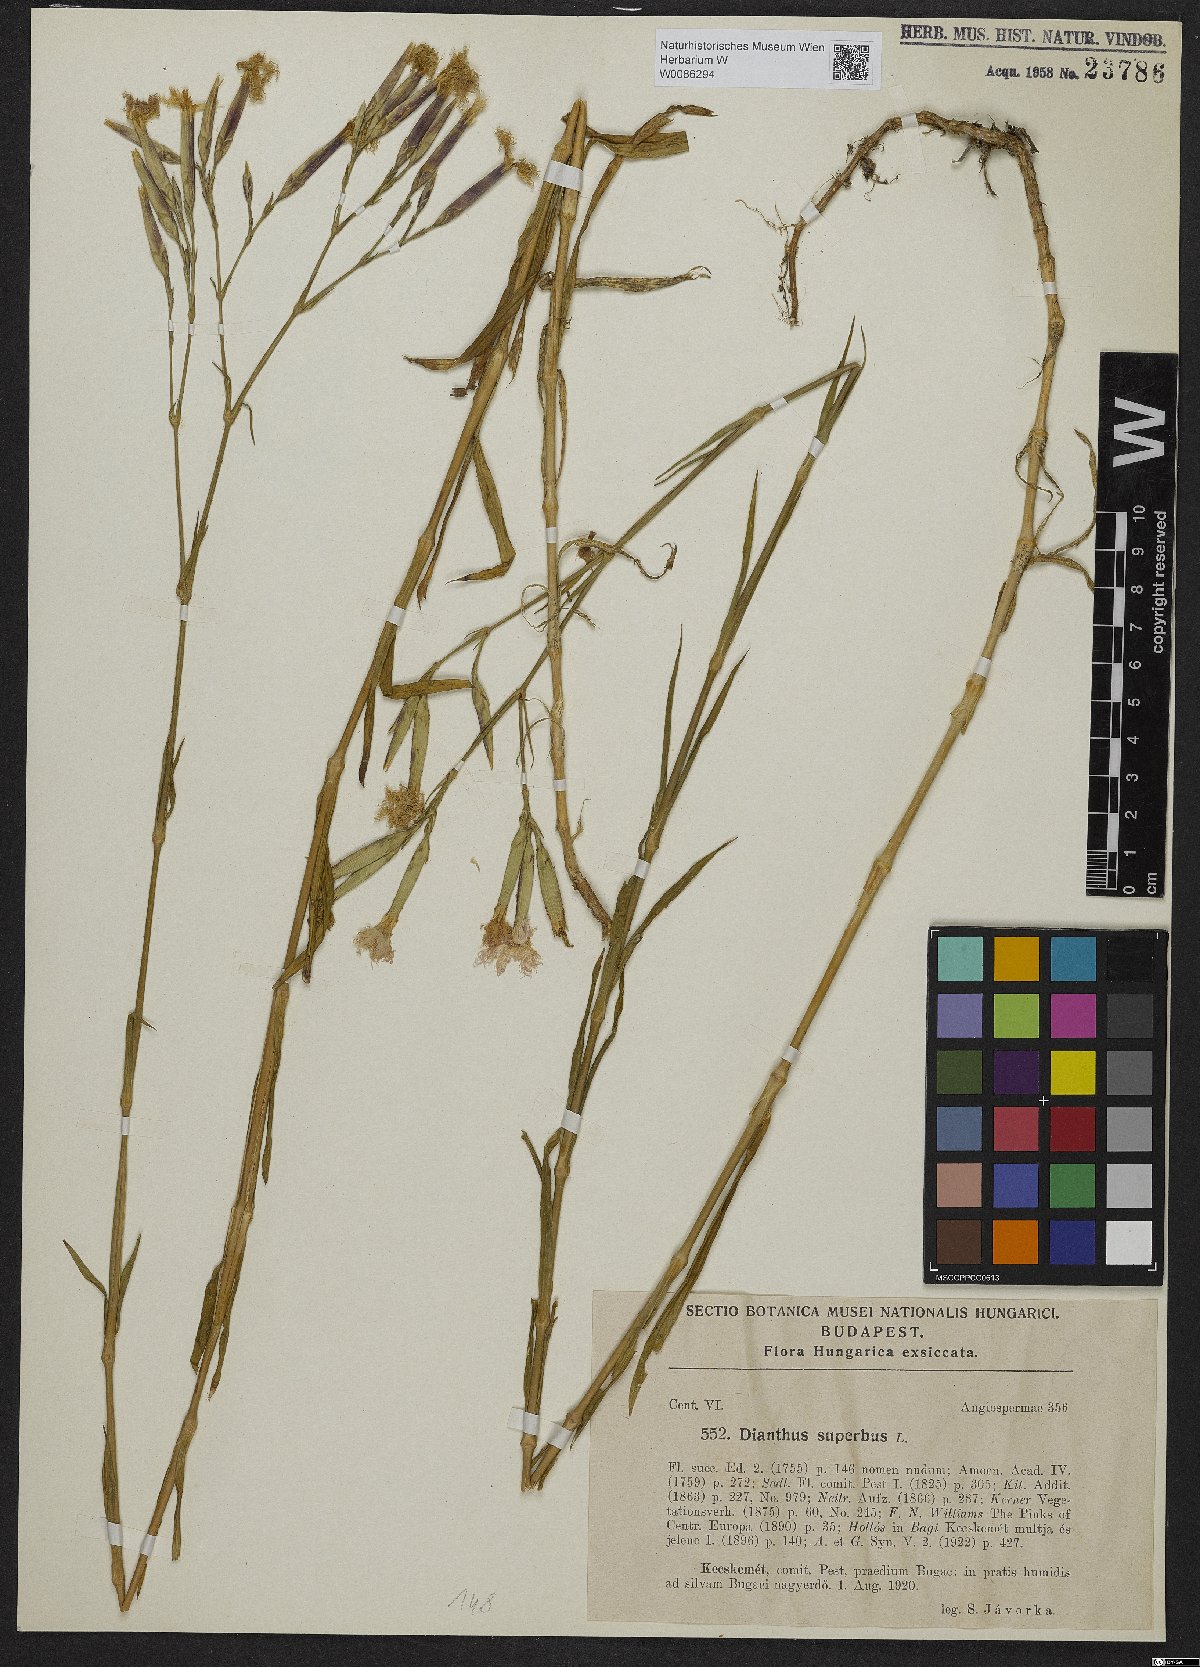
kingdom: Plantae
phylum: Tracheophyta
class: Magnoliopsida
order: Caryophyllales
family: Caryophyllaceae
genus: Dianthus
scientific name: Dianthus superbus
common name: Fringed pink
